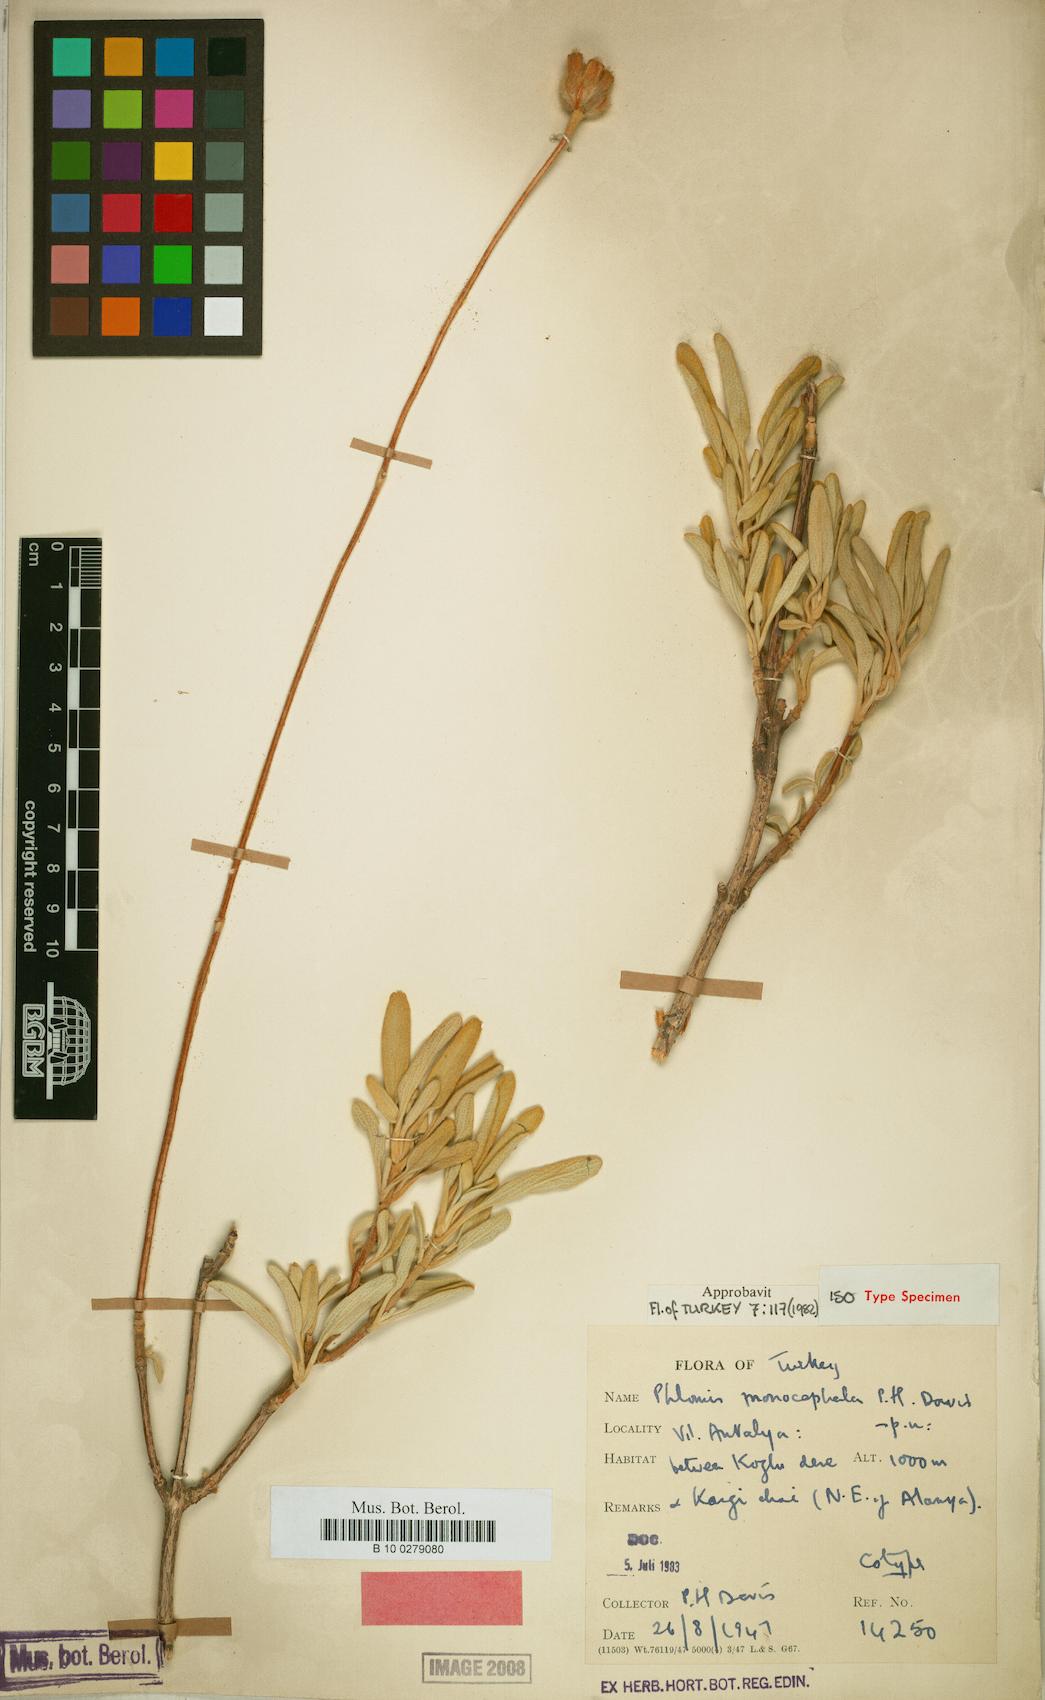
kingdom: Plantae
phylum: Tracheophyta
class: Magnoliopsida
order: Lamiales
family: Lamiaceae
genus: Phlomis
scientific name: Phlomis monocephala
